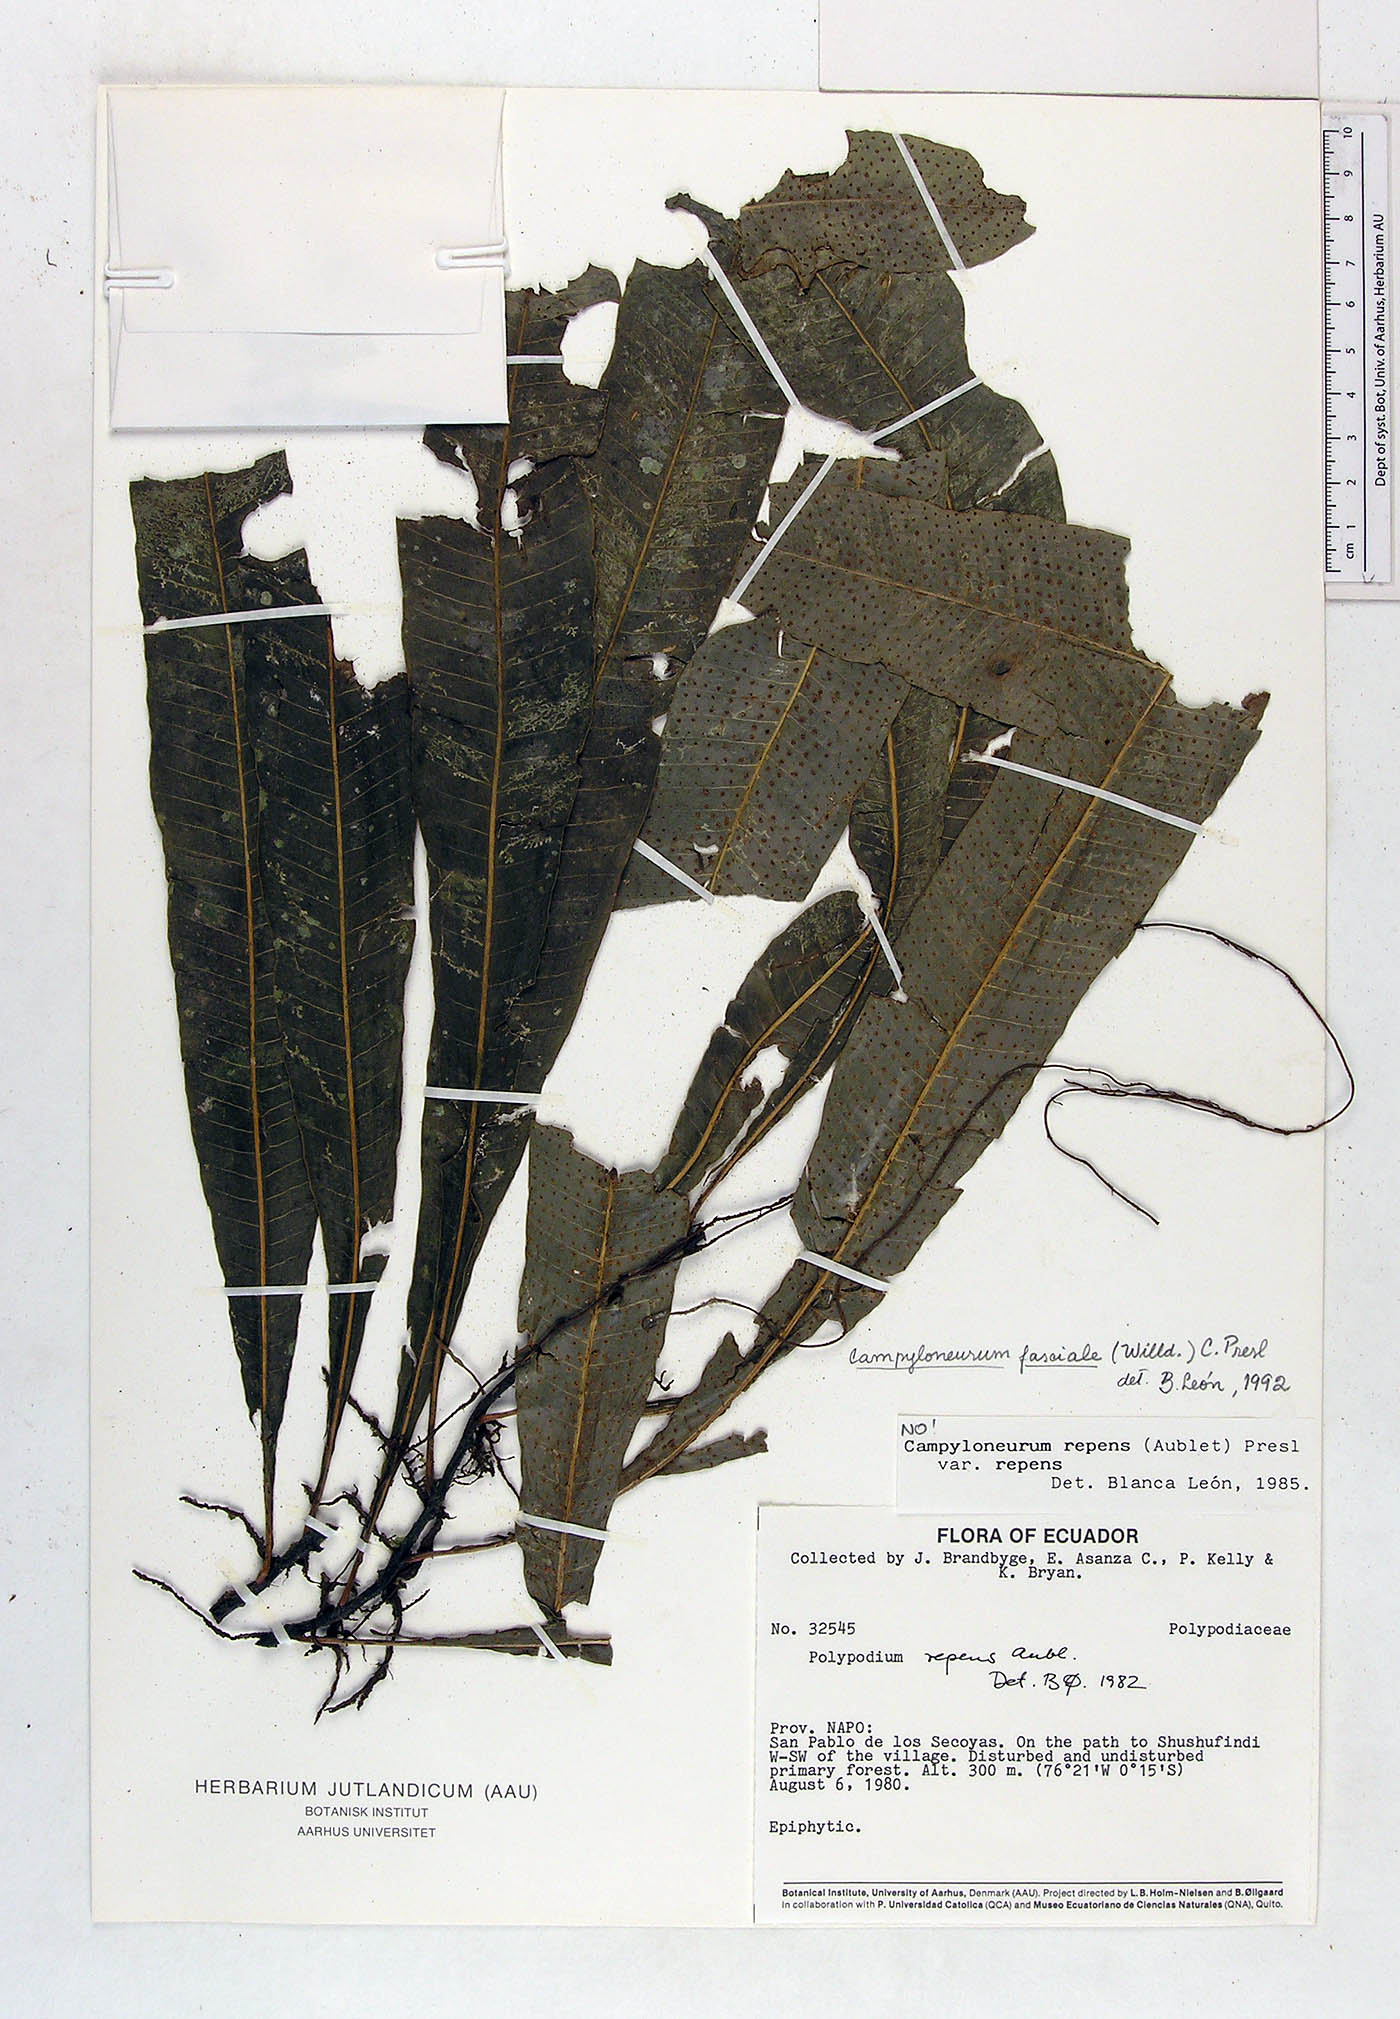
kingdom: Plantae
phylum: Tracheophyta
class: Polypodiopsida
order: Polypodiales
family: Polypodiaceae
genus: Campyloneurum
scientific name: Campyloneurum repens
